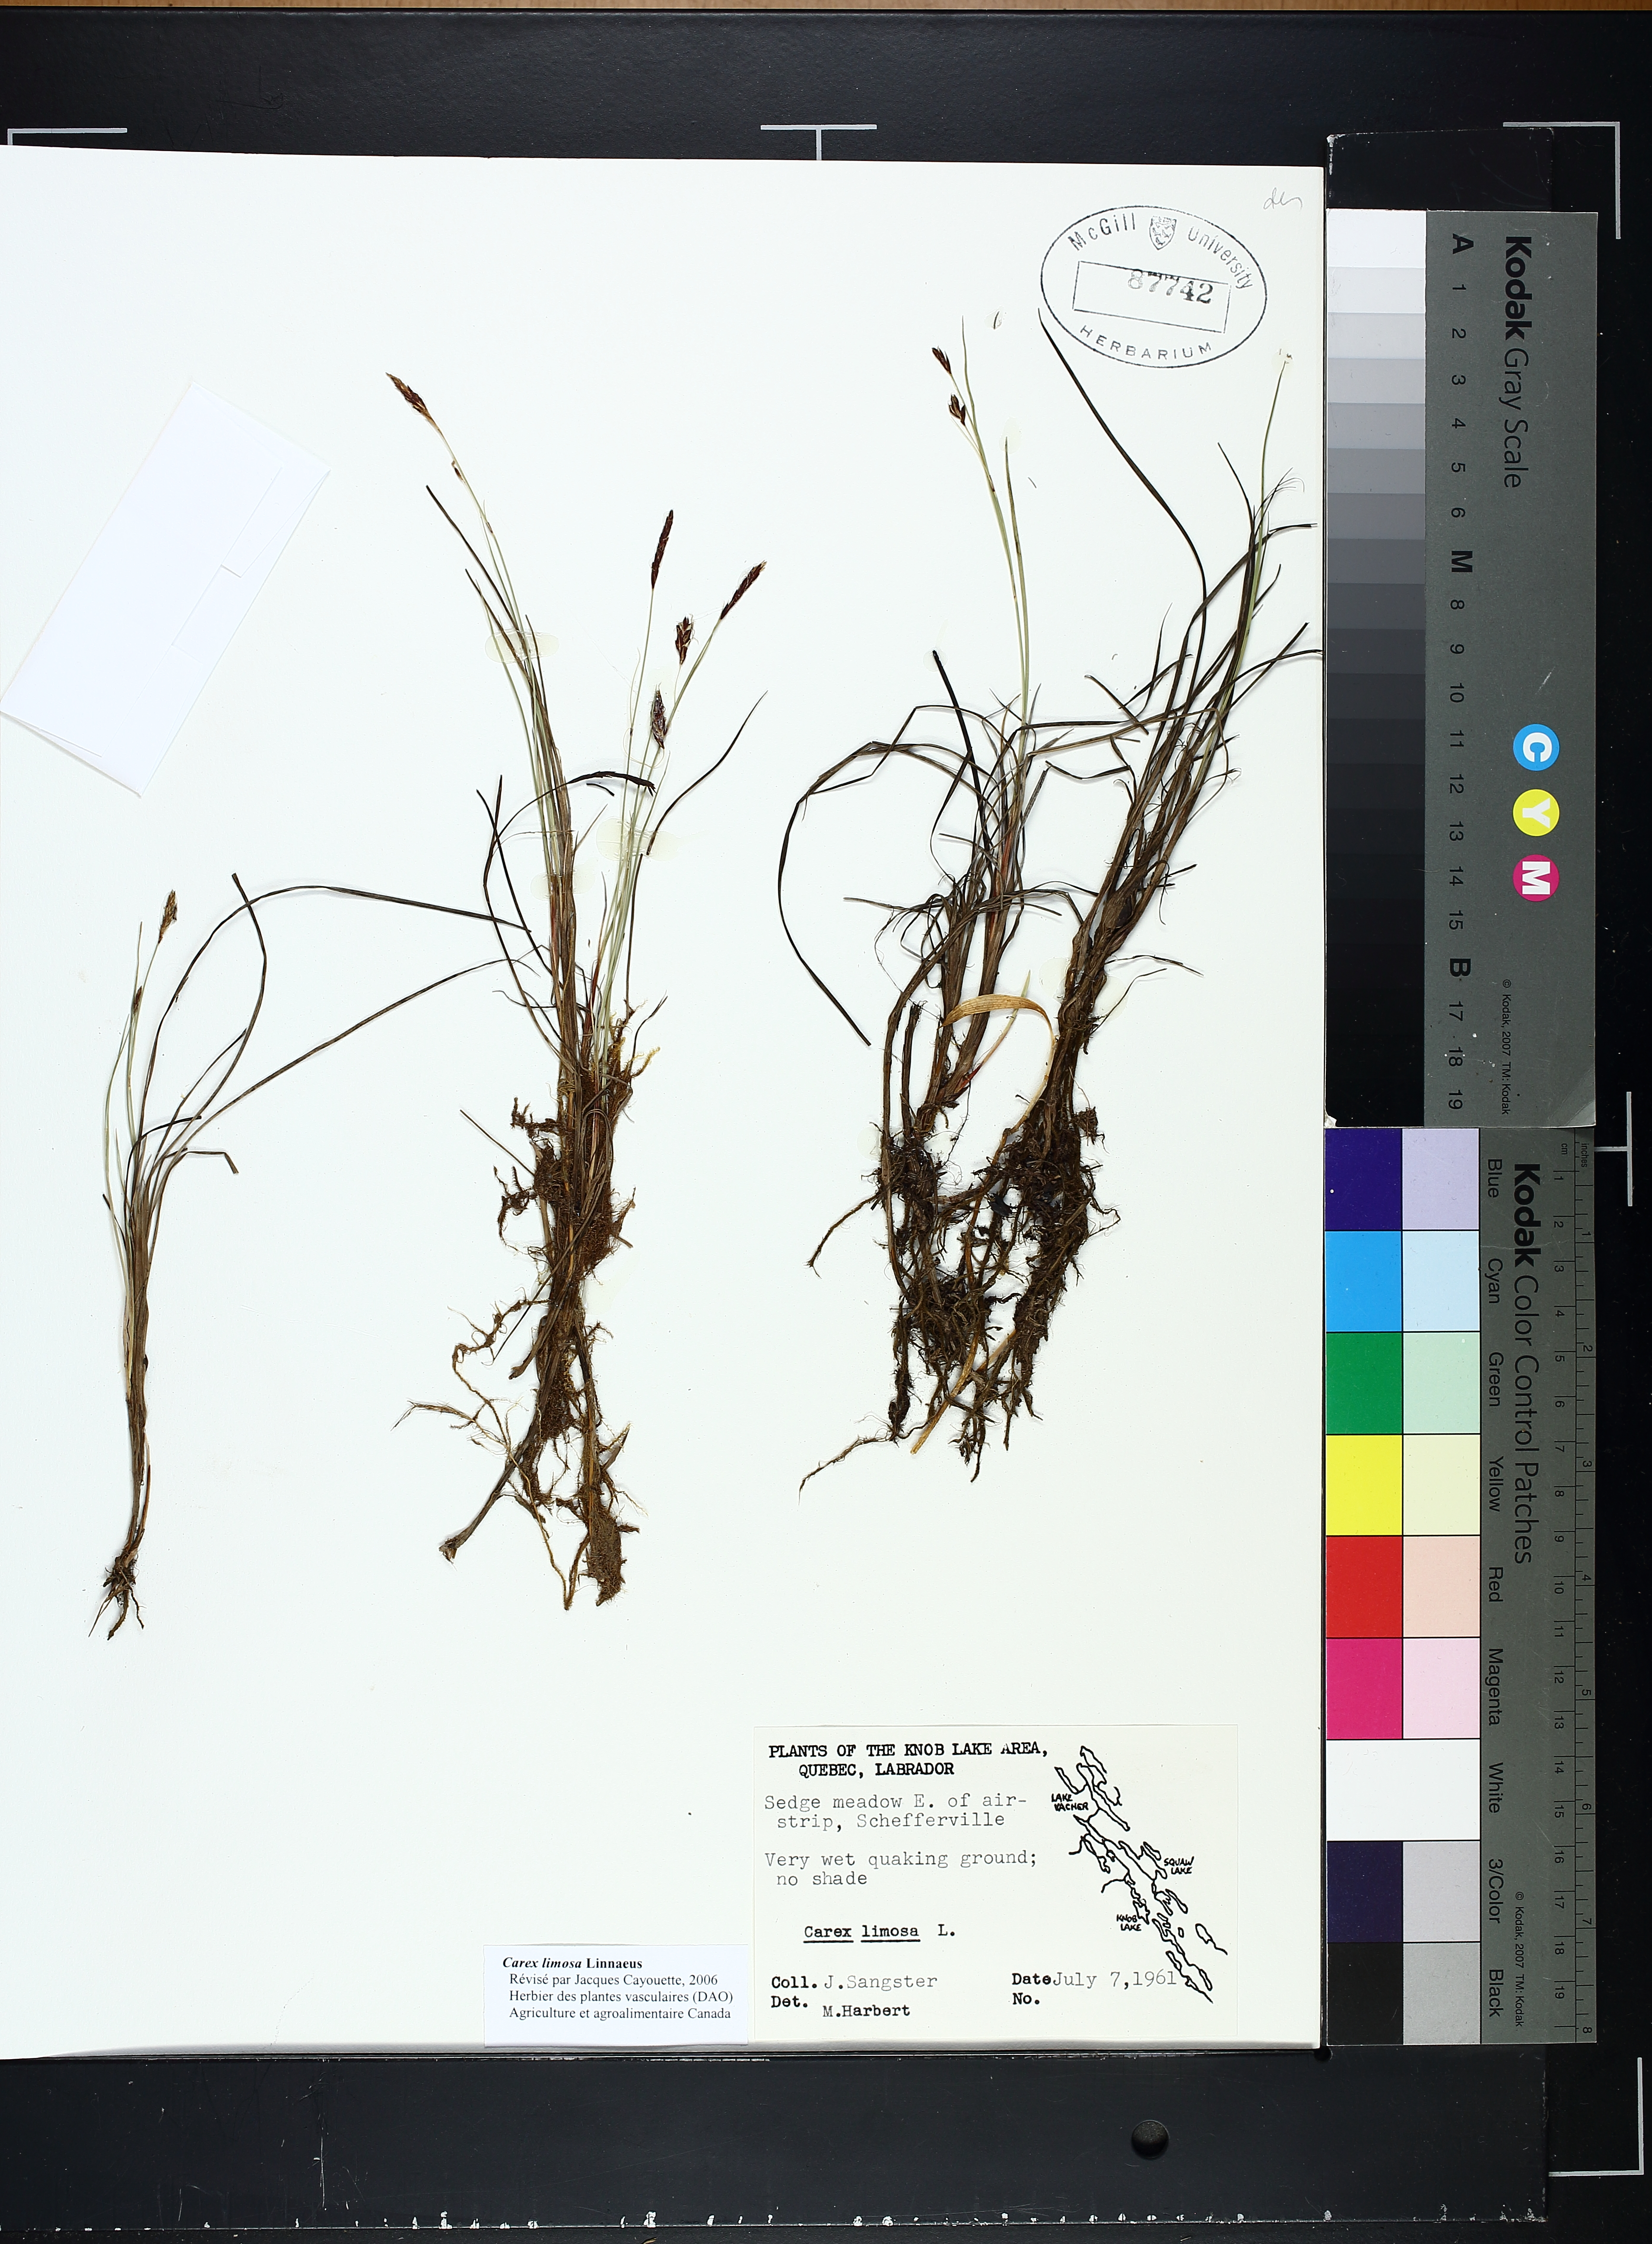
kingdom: Plantae
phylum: Tracheophyta
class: Liliopsida
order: Poales
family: Cyperaceae
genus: Carex
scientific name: Carex limosa
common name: Bog sedge
